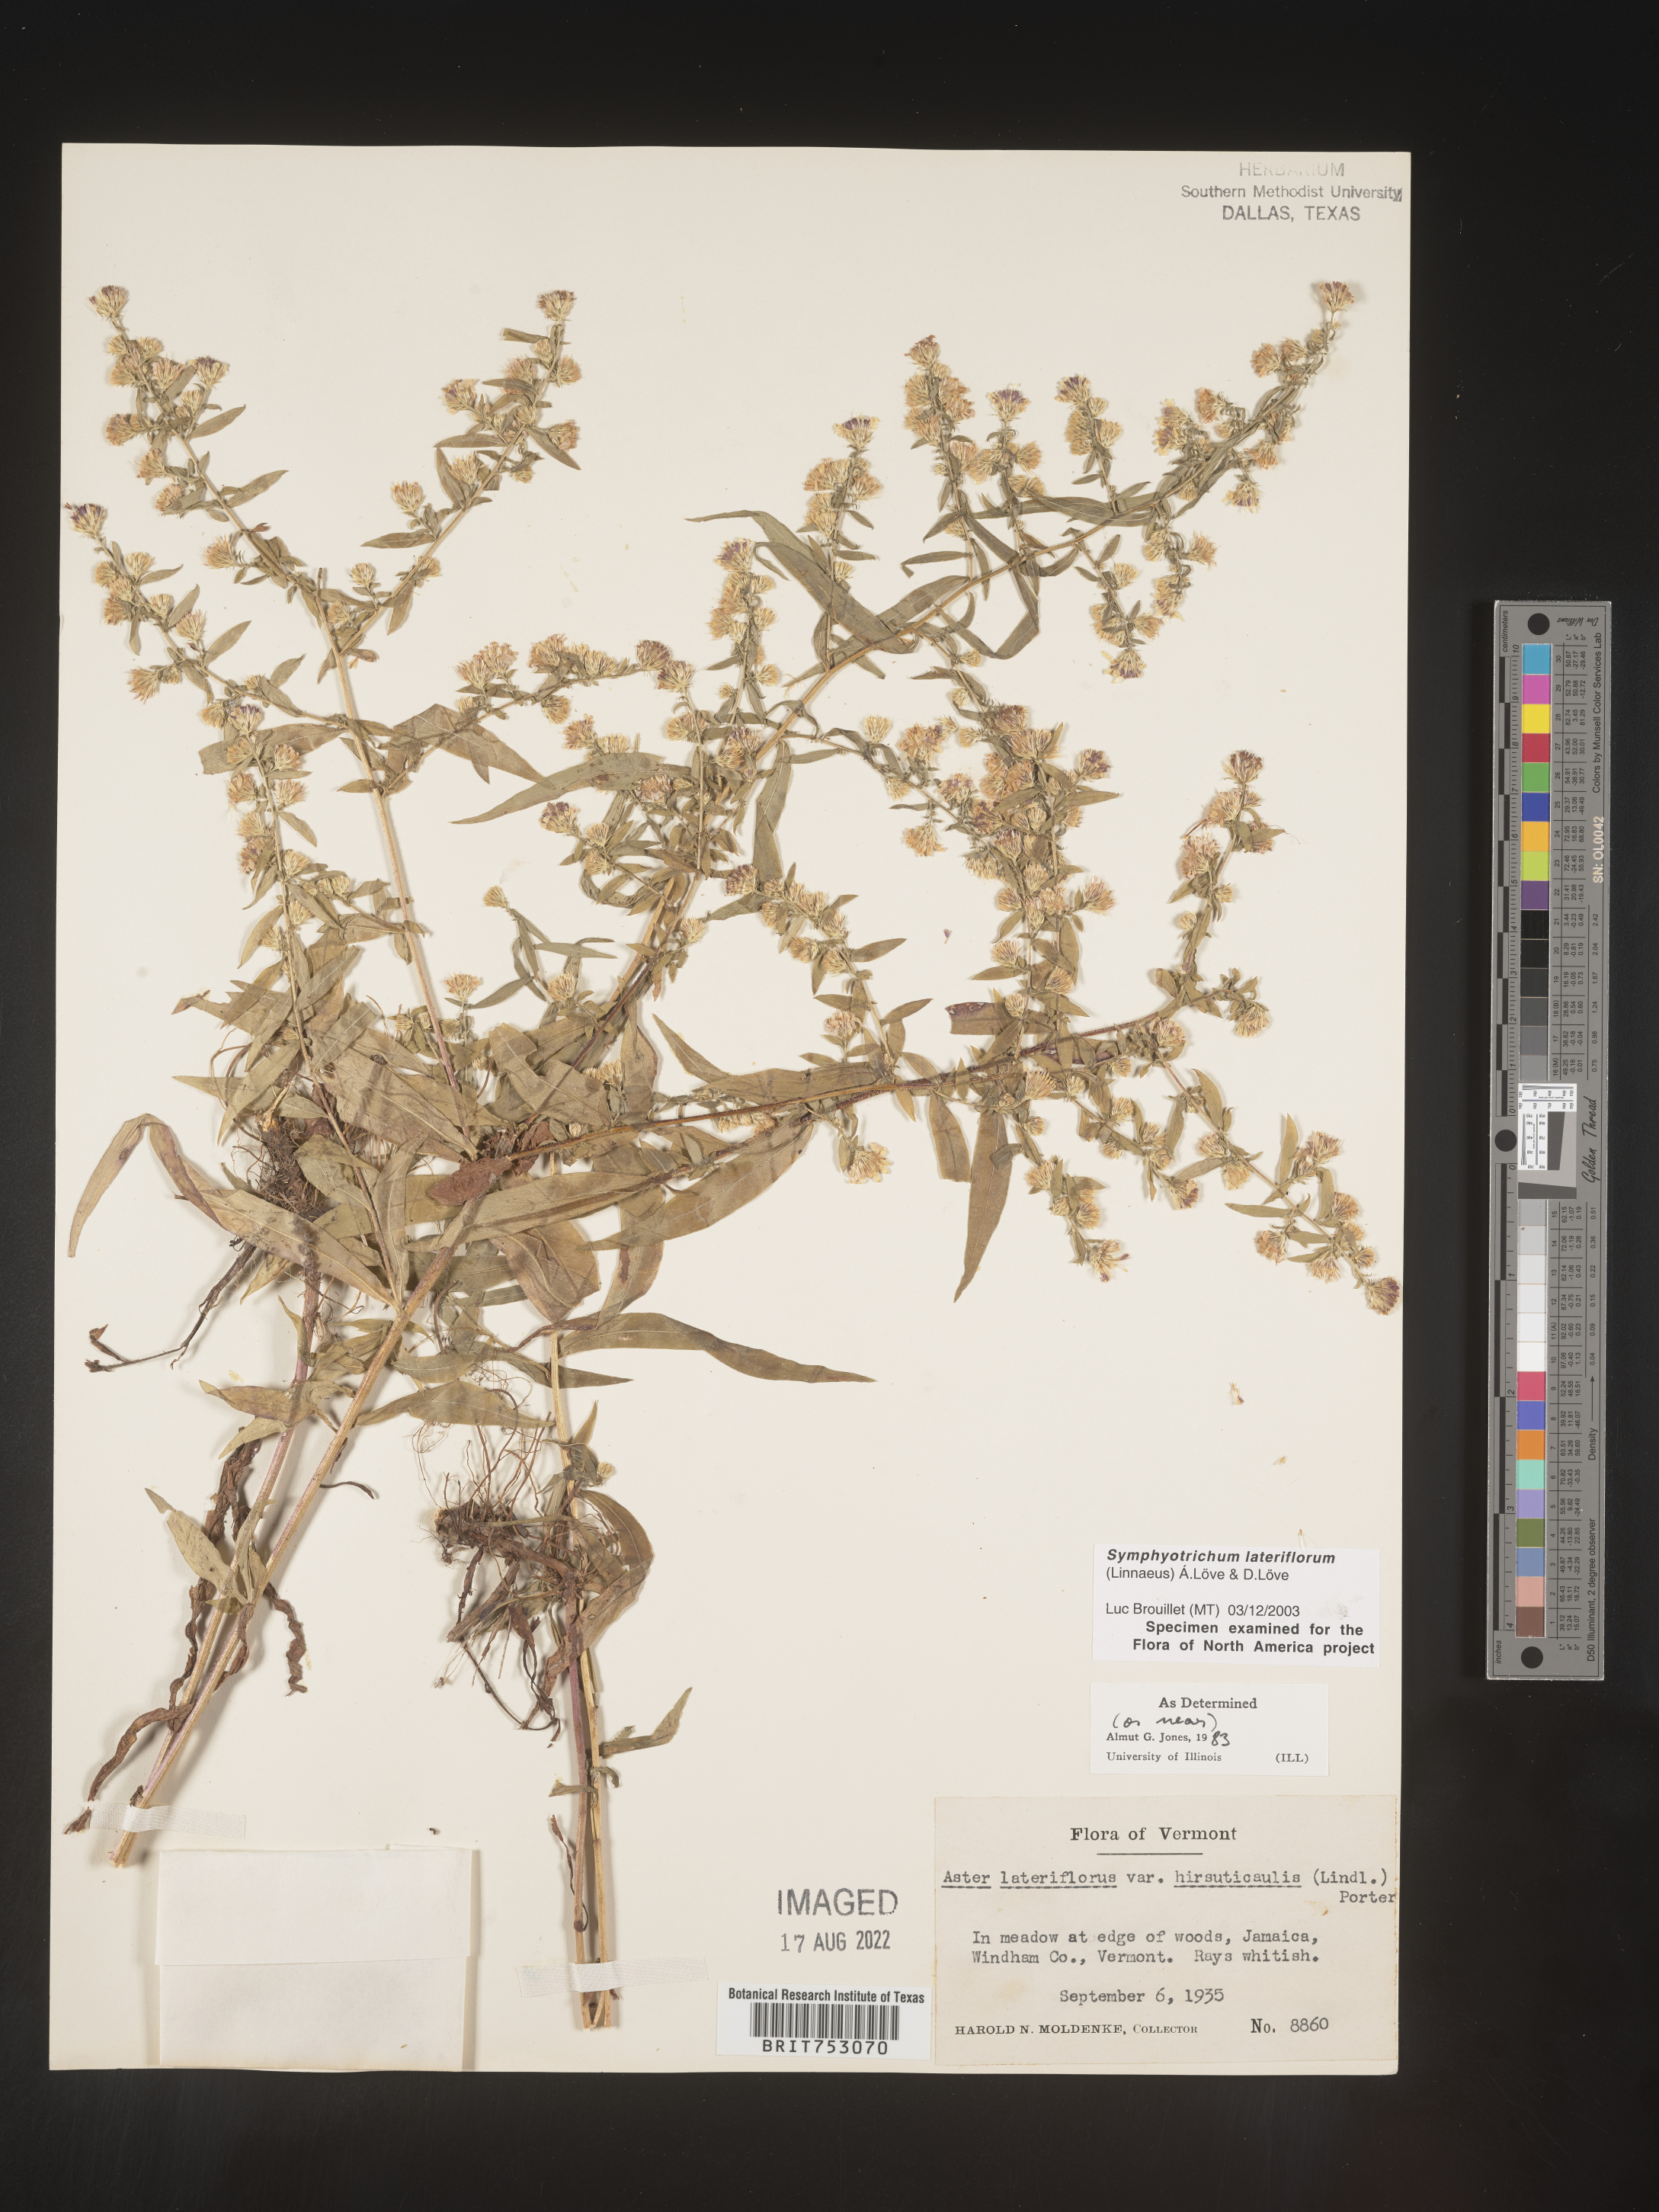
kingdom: Plantae
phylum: Tracheophyta
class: Magnoliopsida
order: Asterales
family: Asteraceae
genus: Symphyotrichum
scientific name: Symphyotrichum lateriflorum
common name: Calico aster
